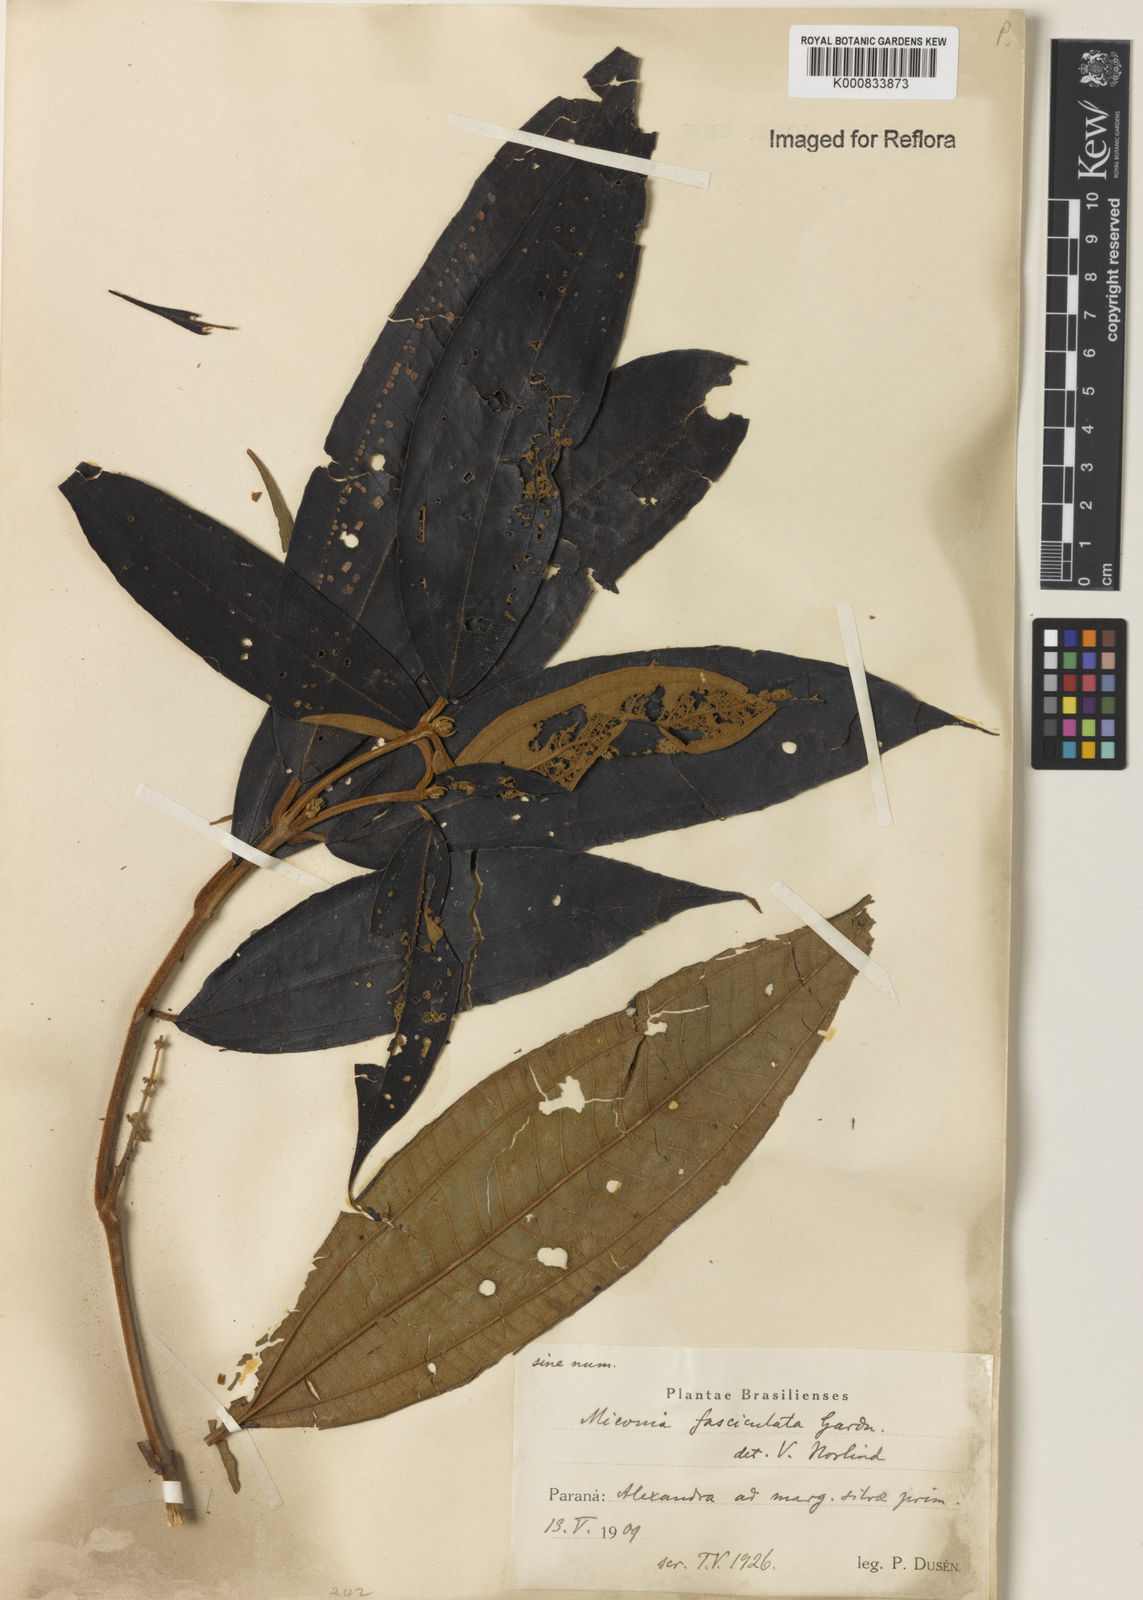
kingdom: Plantae
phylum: Tracheophyta
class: Magnoliopsida
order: Myrtales
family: Melastomataceae
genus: Miconia
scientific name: Miconia fasciculata
